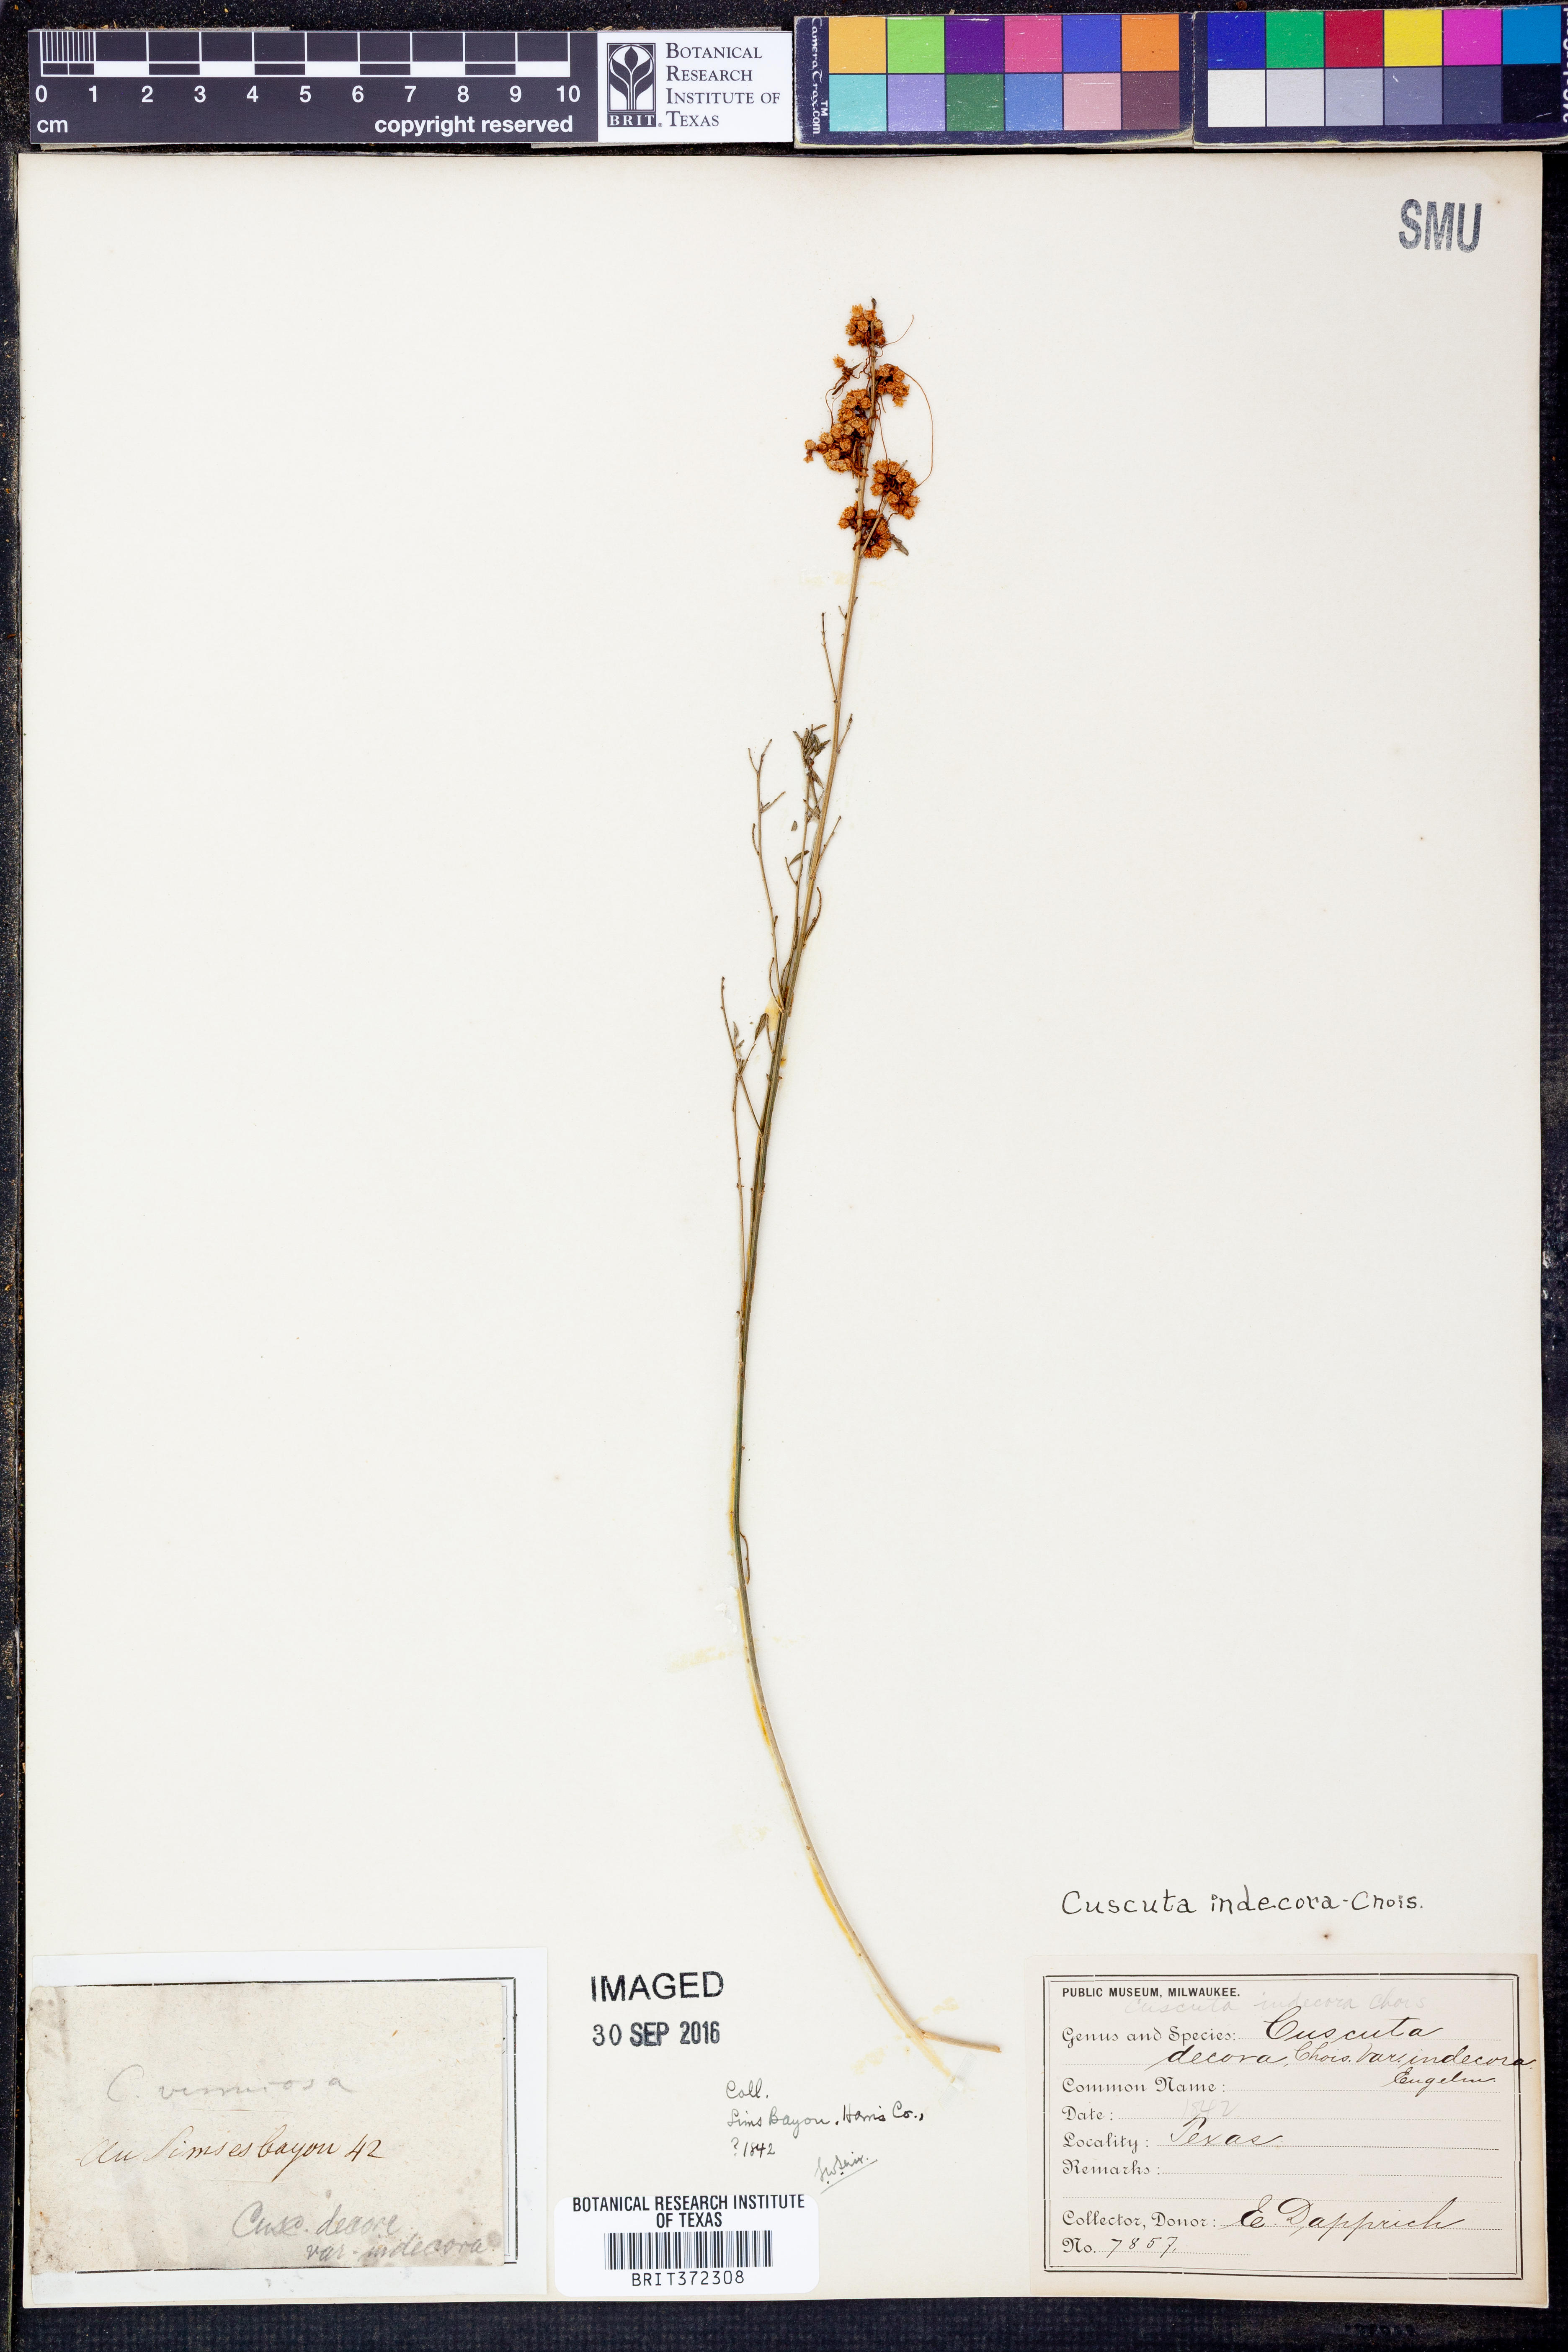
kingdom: Plantae
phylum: Tracheophyta
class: Magnoliopsida
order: Solanales
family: Convolvulaceae
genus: Cuscuta
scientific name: Cuscuta indecora
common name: Large-seed dodder
